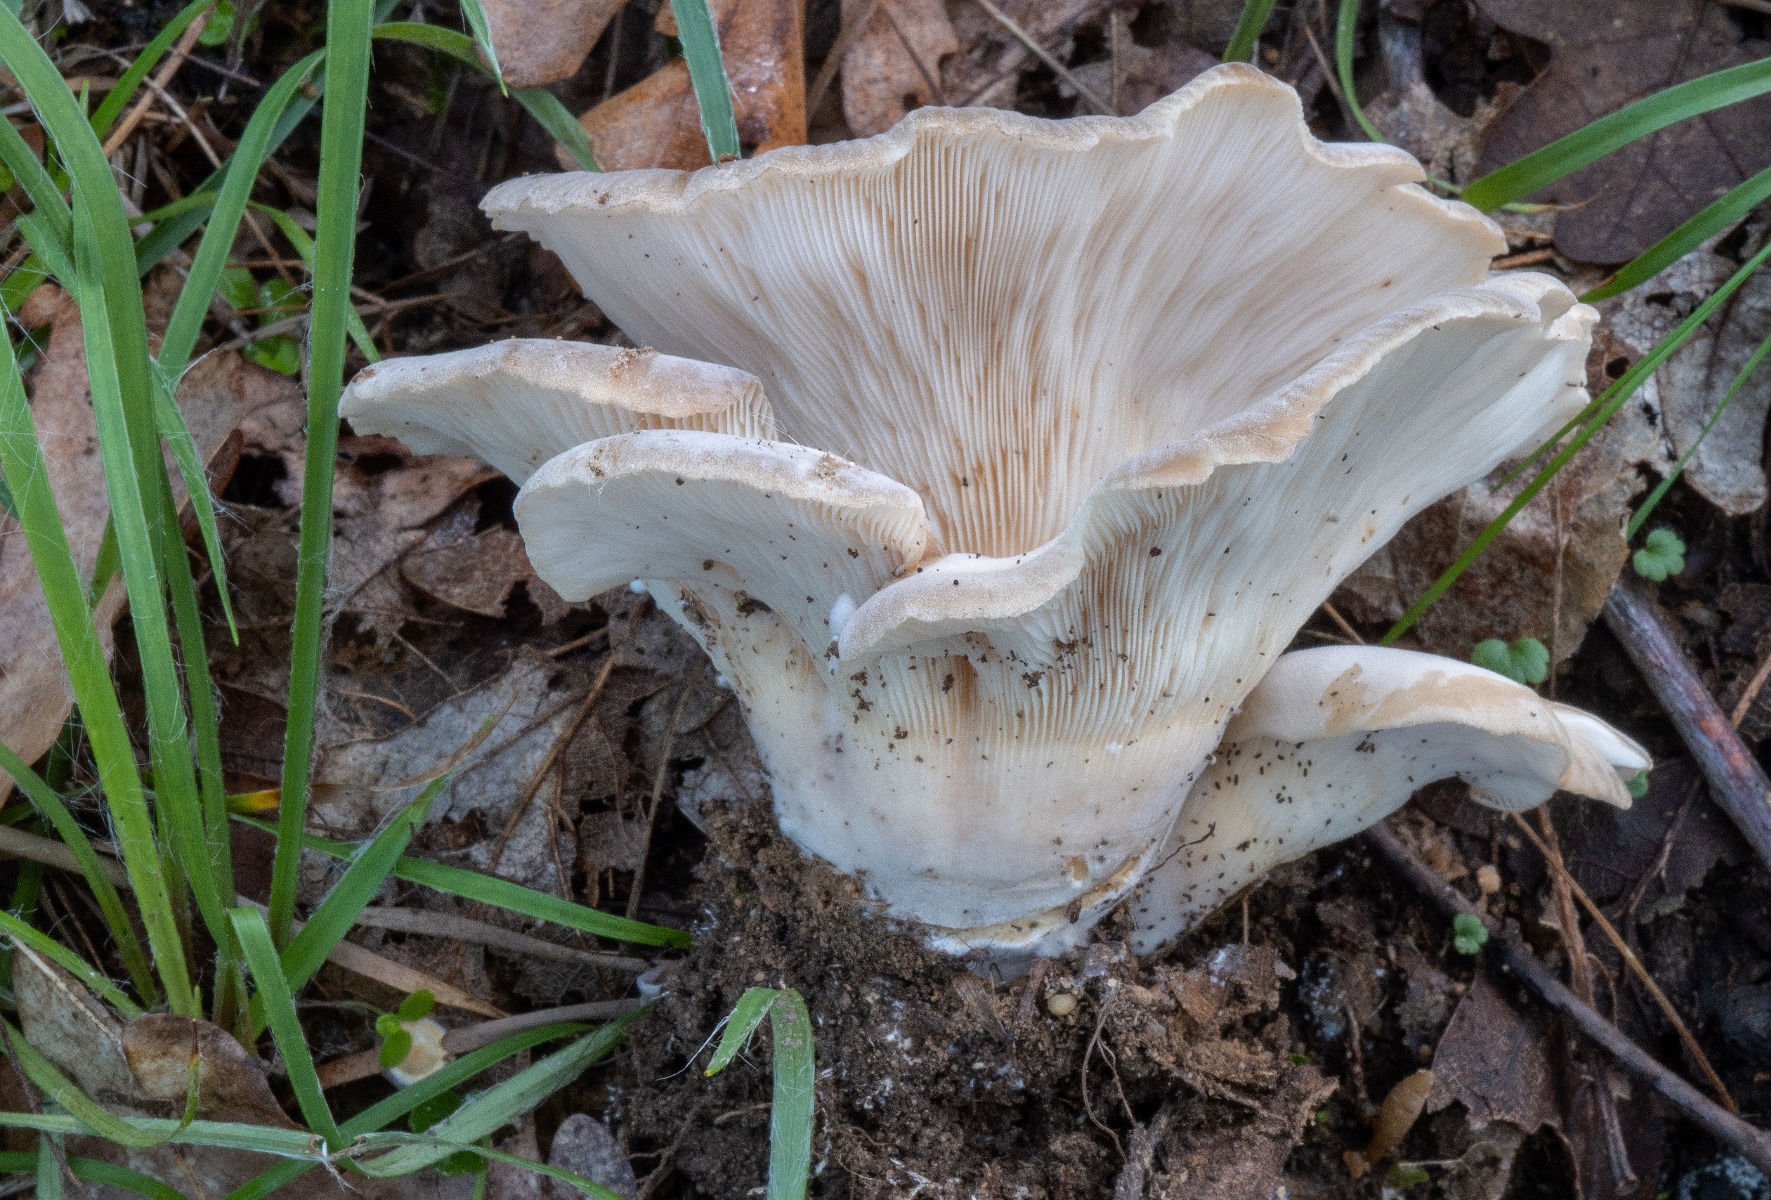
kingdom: Fungi
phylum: Basidiomycota
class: Agaricomycetes
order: Agaricales
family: Pleurotaceae
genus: Hohenbuehelia
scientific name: Hohenbuehelia petaloides
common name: stor filthat
